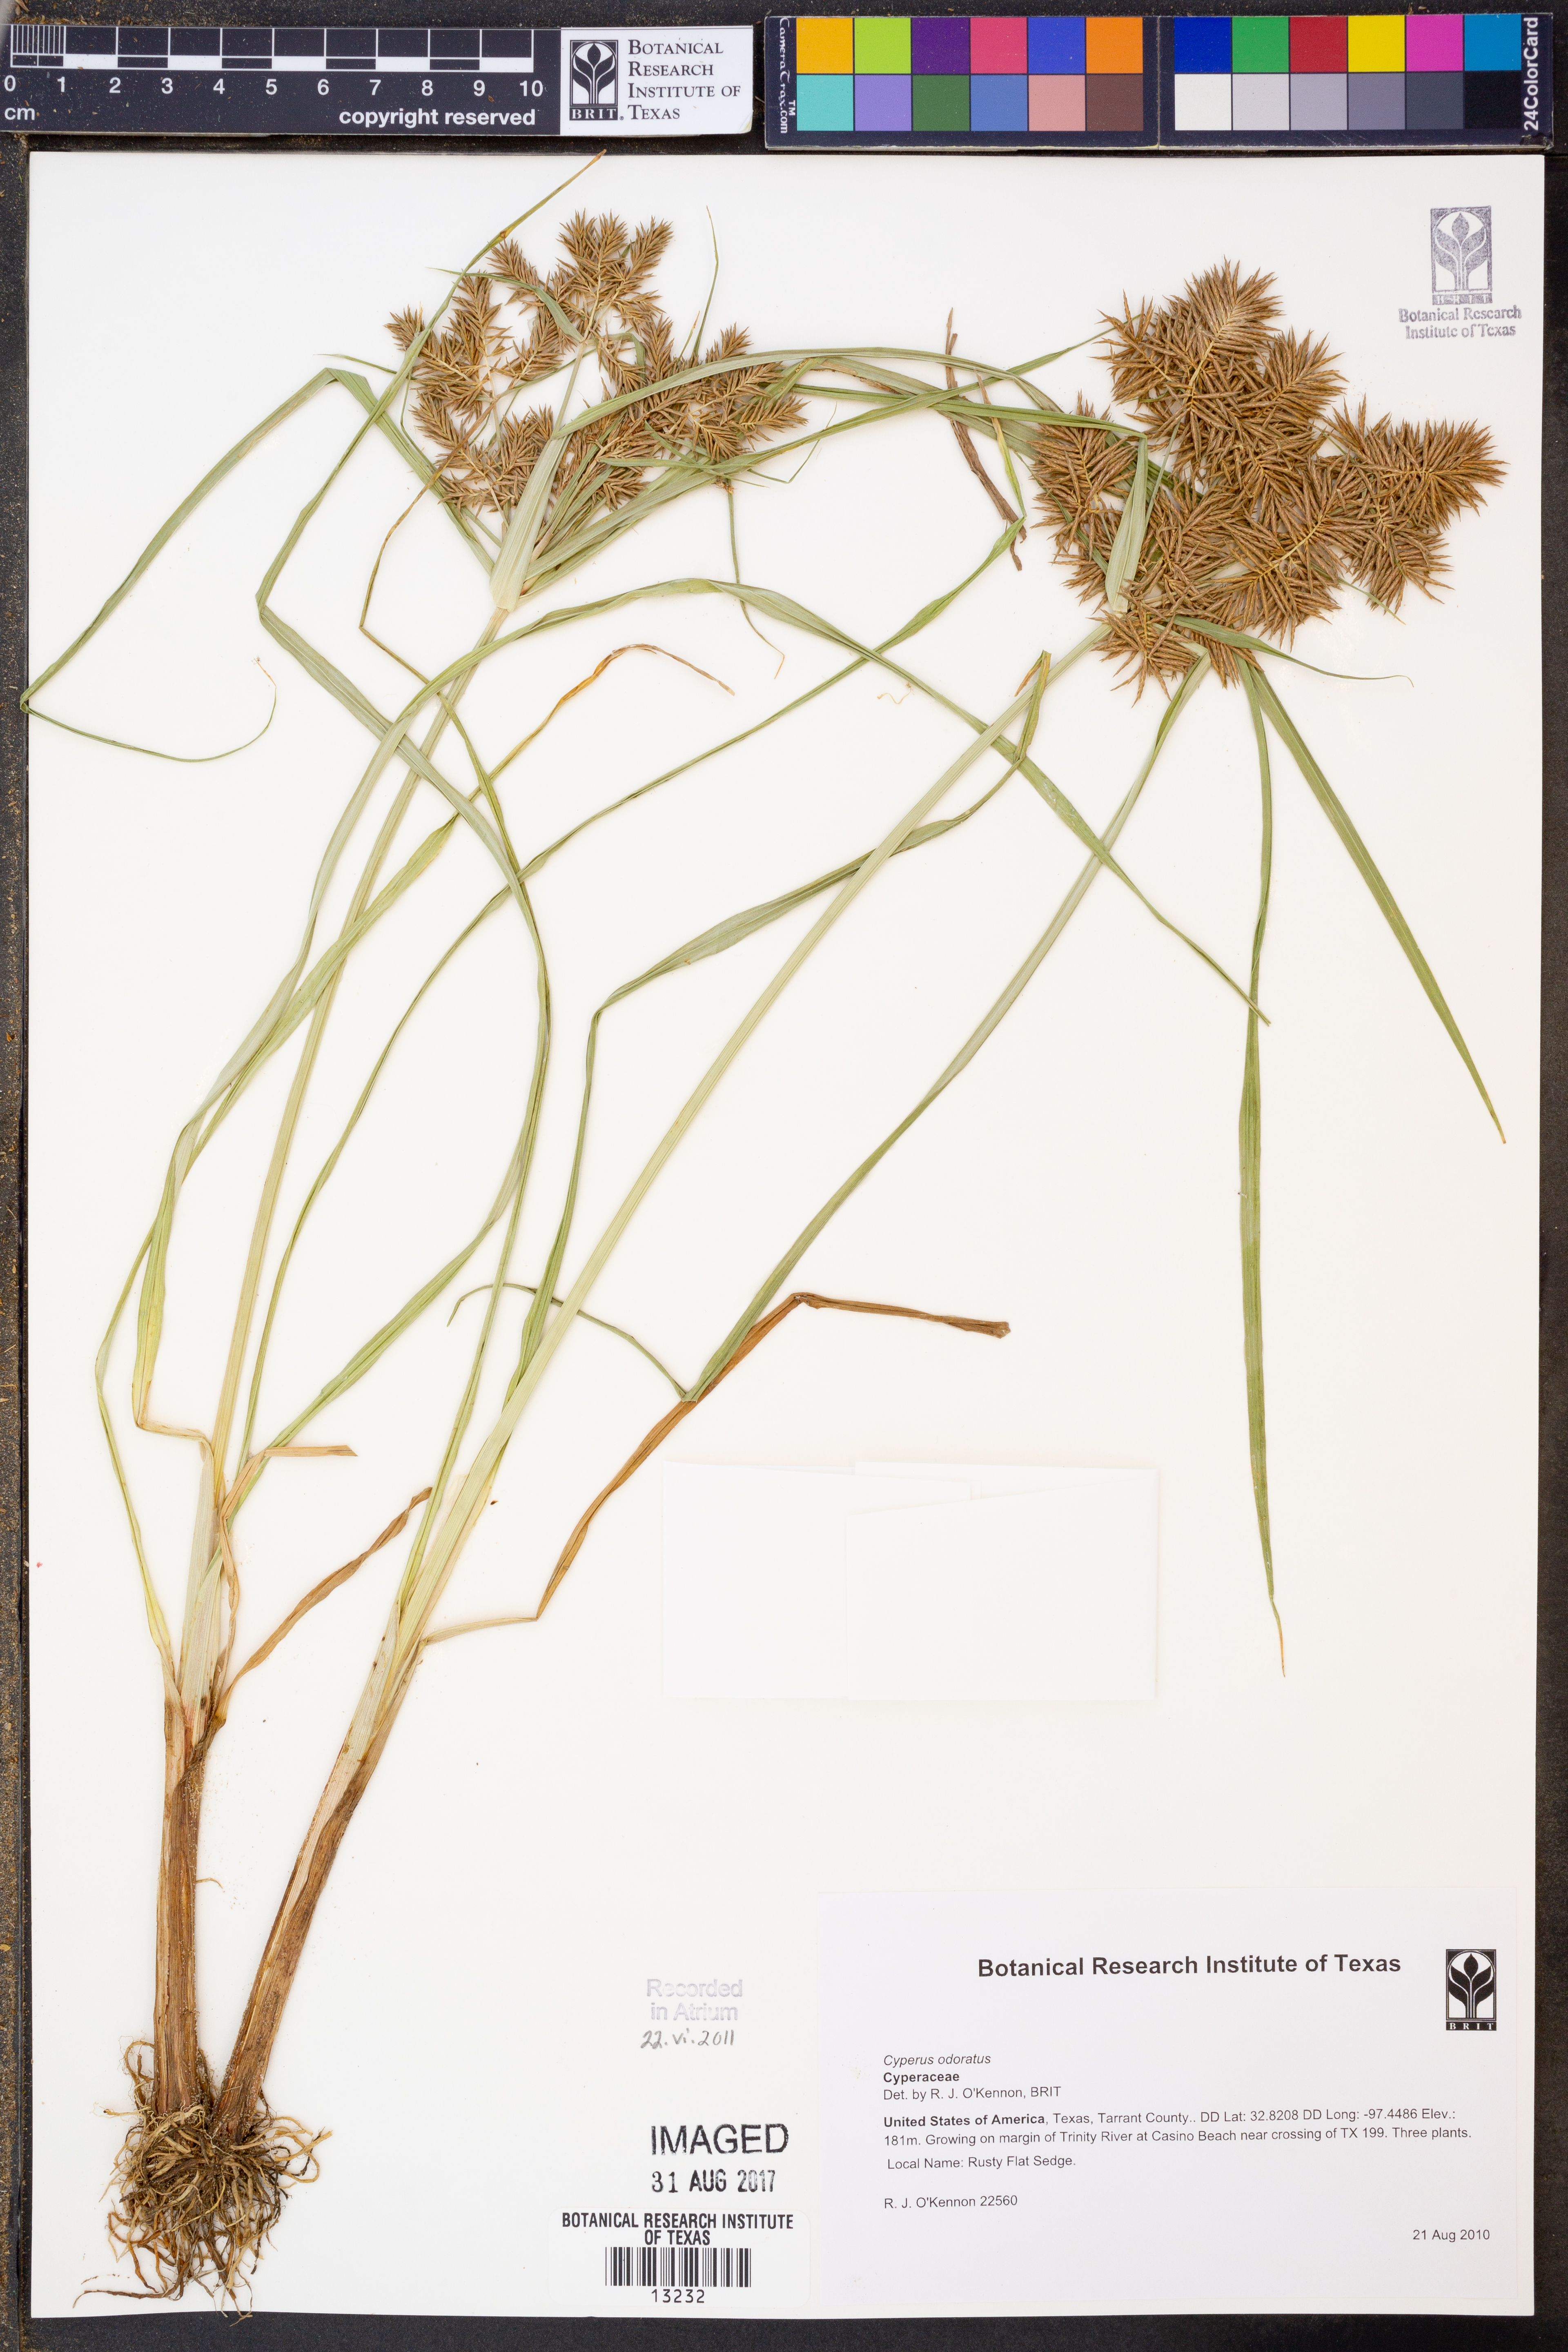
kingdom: Plantae
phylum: Tracheophyta
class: Liliopsida
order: Poales
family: Cyperaceae
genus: Cyperus
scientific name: Cyperus odoratus
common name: Fragrant flatsedge
